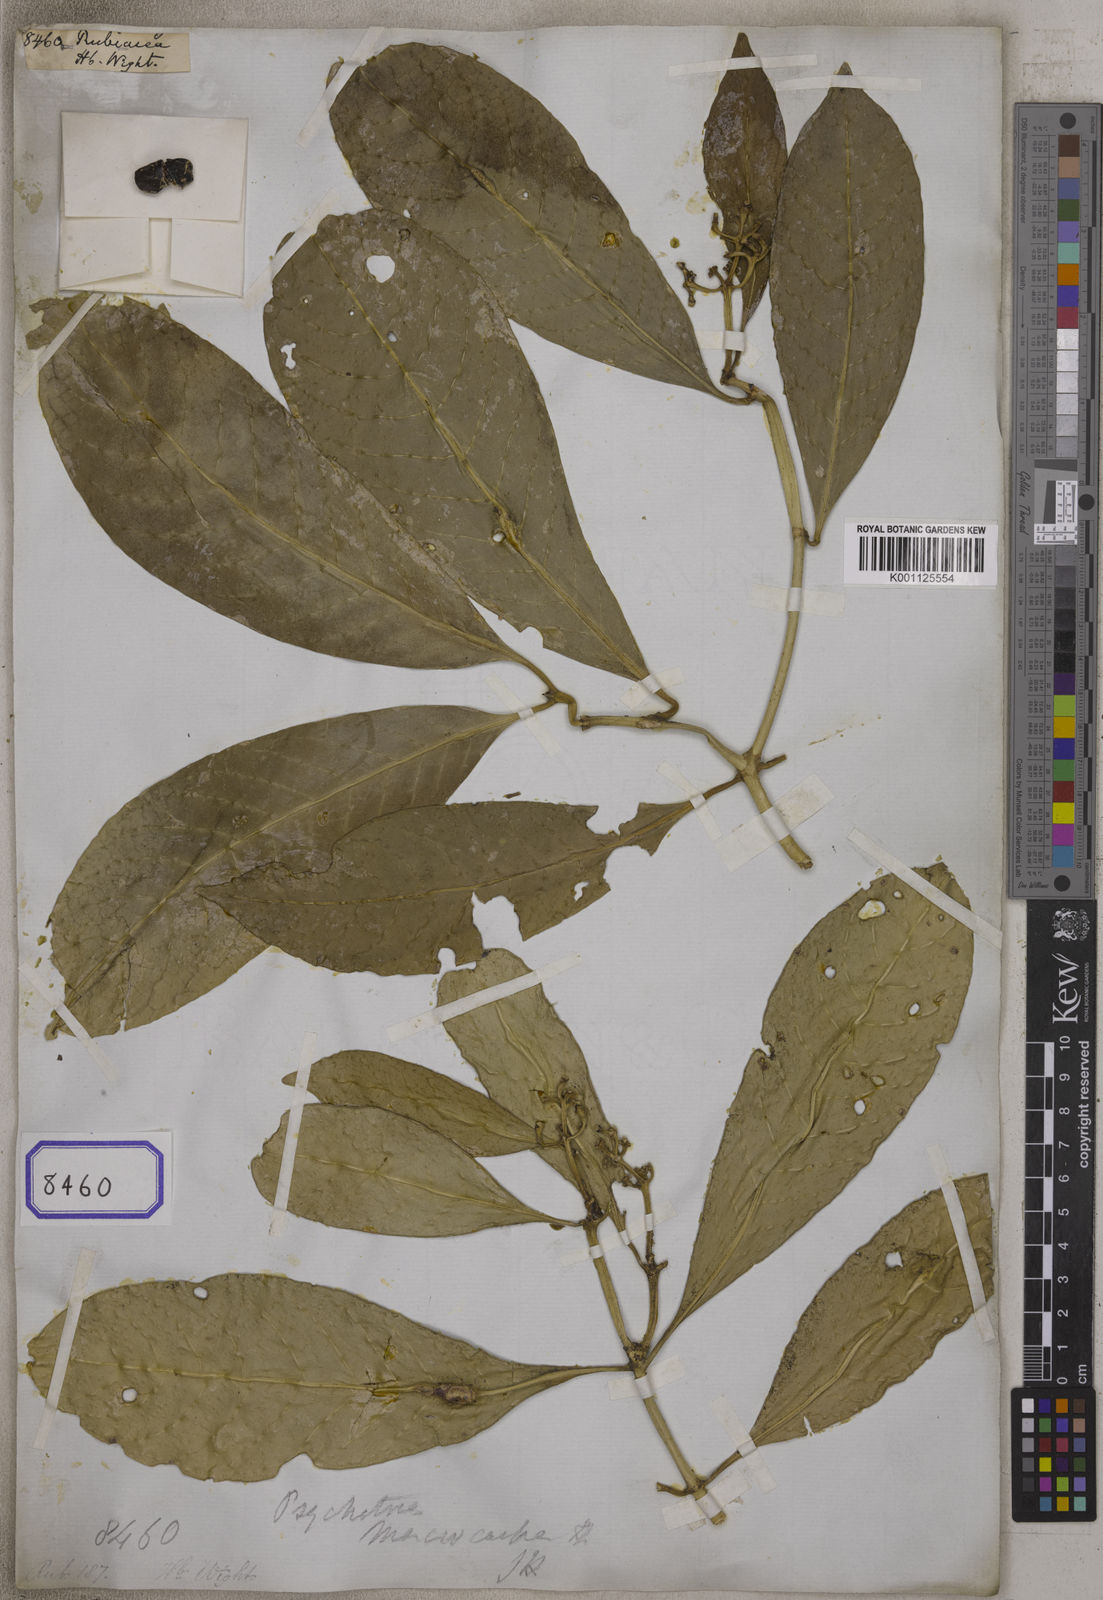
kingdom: Plantae
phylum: Tracheophyta
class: Magnoliopsida
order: Gentianales
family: Rubiaceae
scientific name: Rubiaceae
